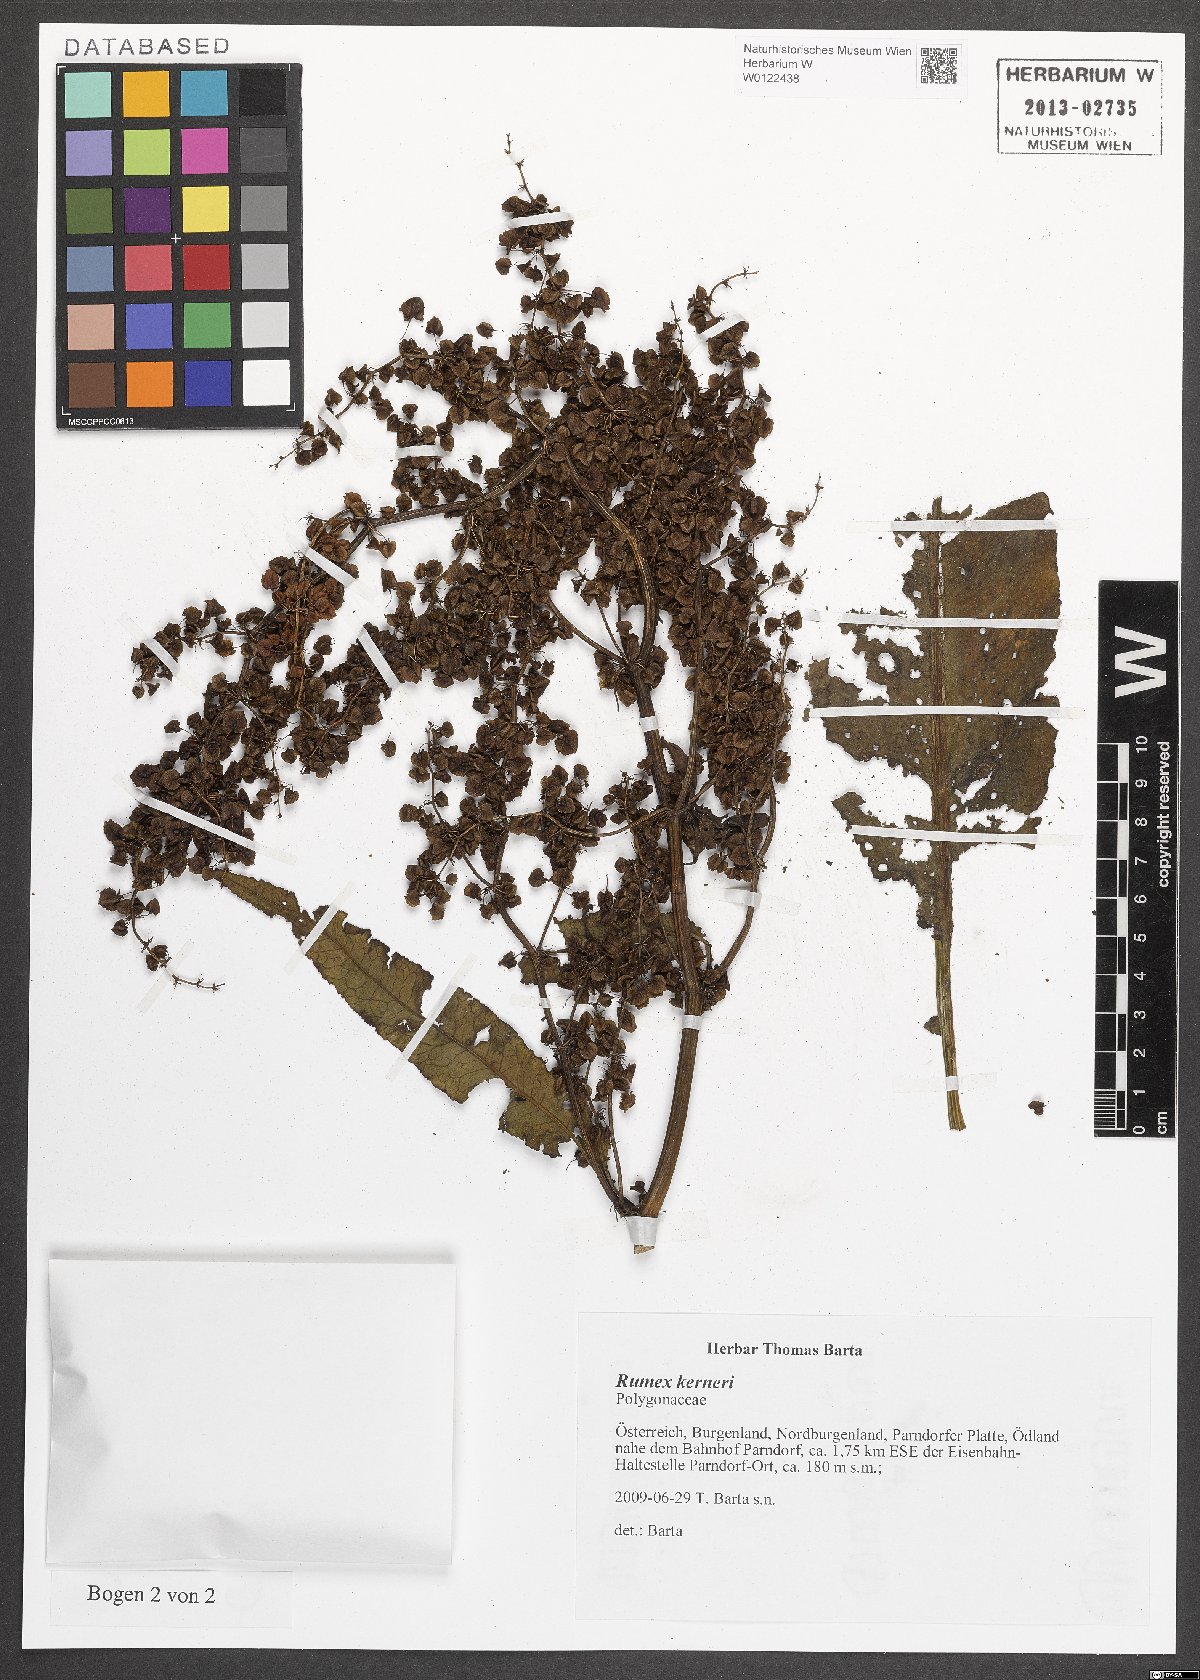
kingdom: Plantae
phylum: Tracheophyta
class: Magnoliopsida
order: Caryophyllales
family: Polygonaceae
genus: Rumex
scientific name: Rumex kerneri
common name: Kerner's dock
